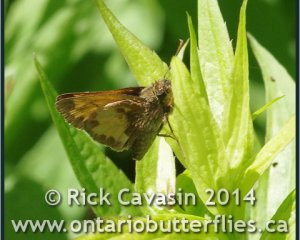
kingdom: Animalia
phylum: Arthropoda
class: Insecta
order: Lepidoptera
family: Hesperiidae
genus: Lon
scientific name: Lon hobomok
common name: Hobomok Skipper
